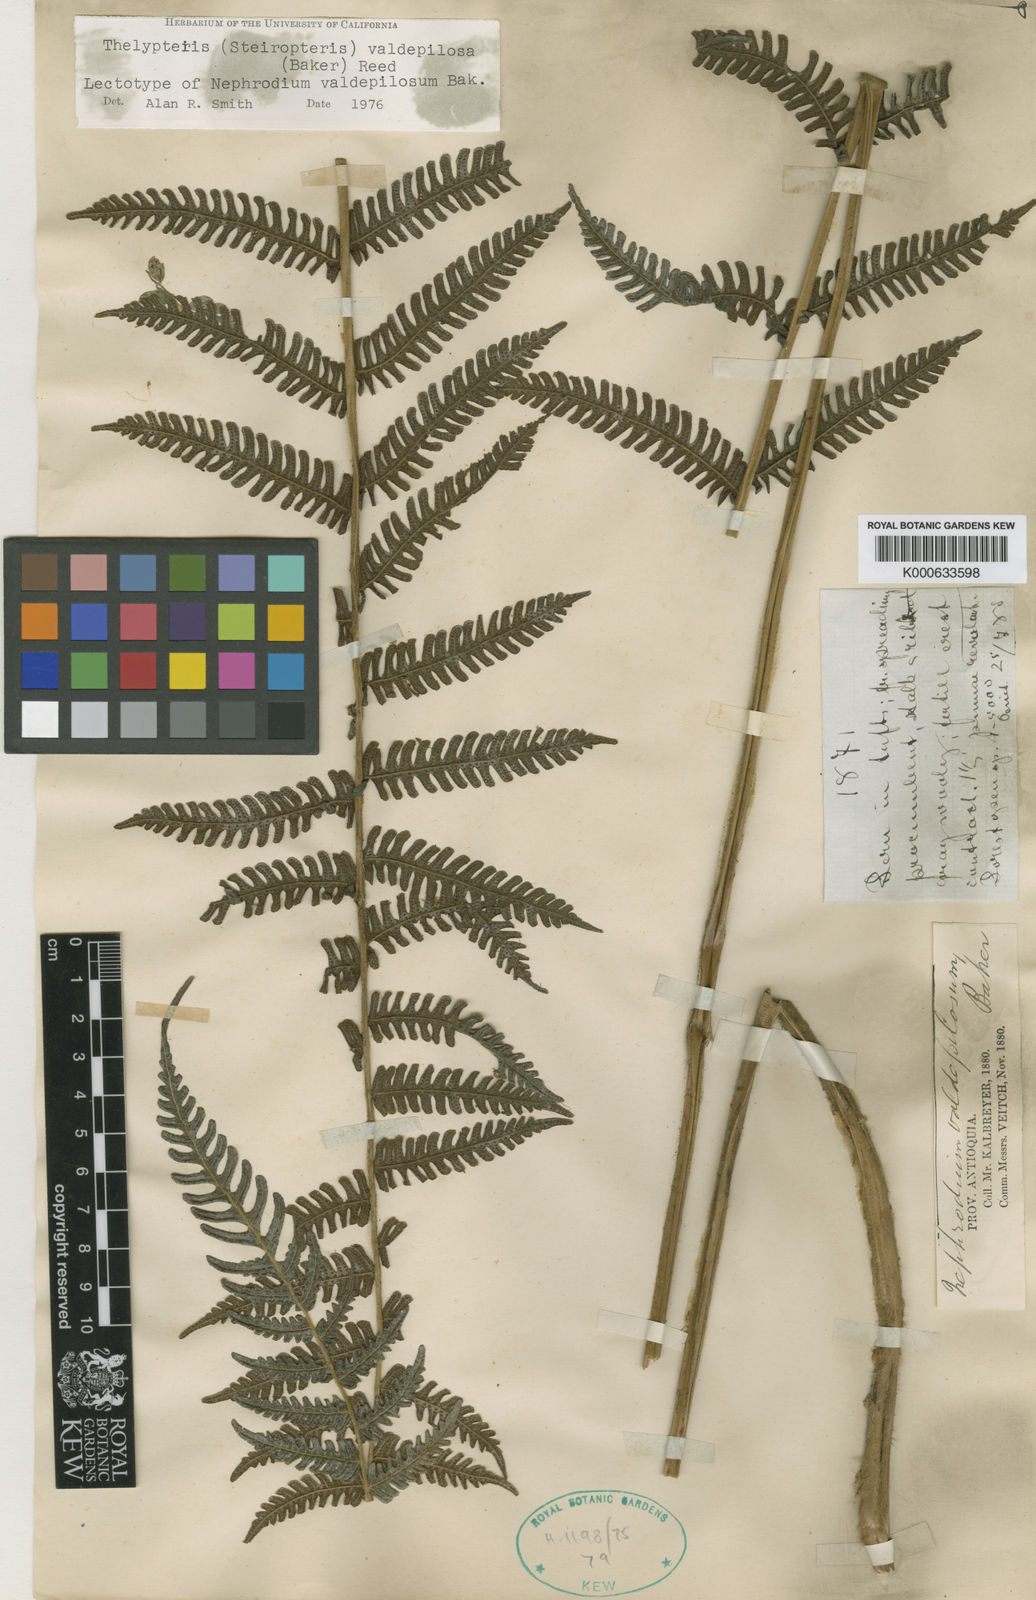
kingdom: Plantae
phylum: Tracheophyta
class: Polypodiopsida
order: Polypodiales
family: Thelypteridaceae
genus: Steiropteris
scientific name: Steiropteris valdepilosa
